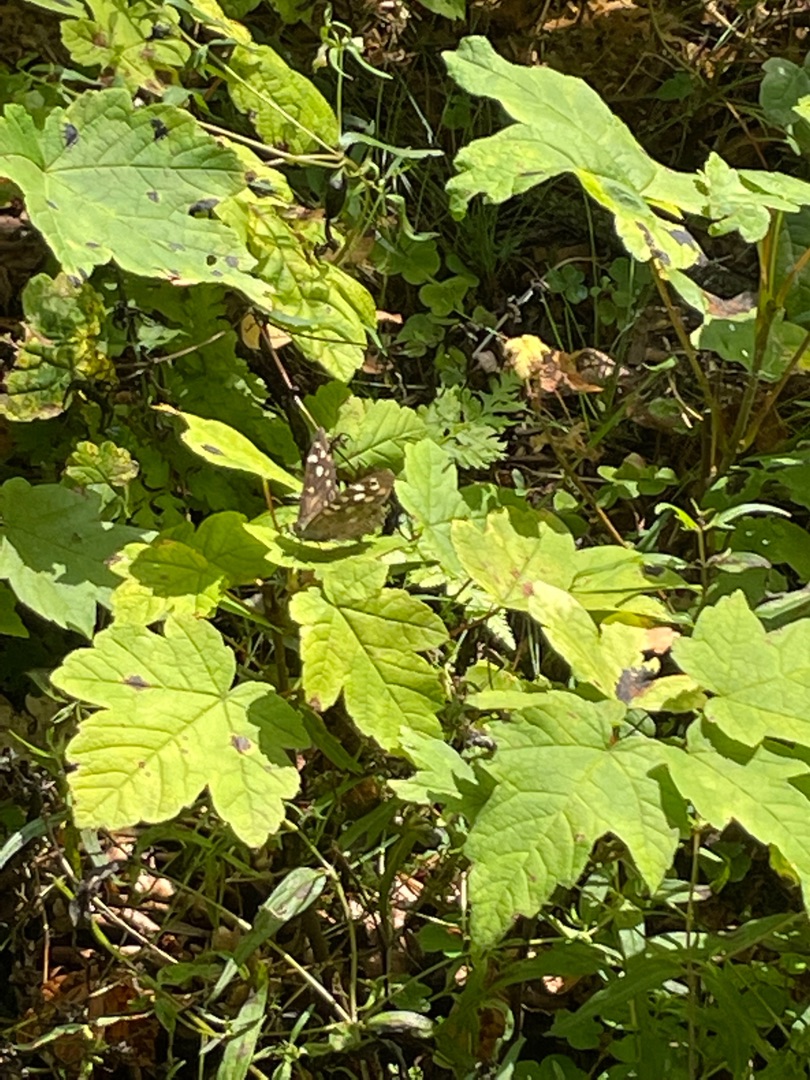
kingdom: Animalia
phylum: Arthropoda
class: Insecta
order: Lepidoptera
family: Nymphalidae
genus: Pararge
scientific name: Pararge aegeria
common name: Skovrandøje
